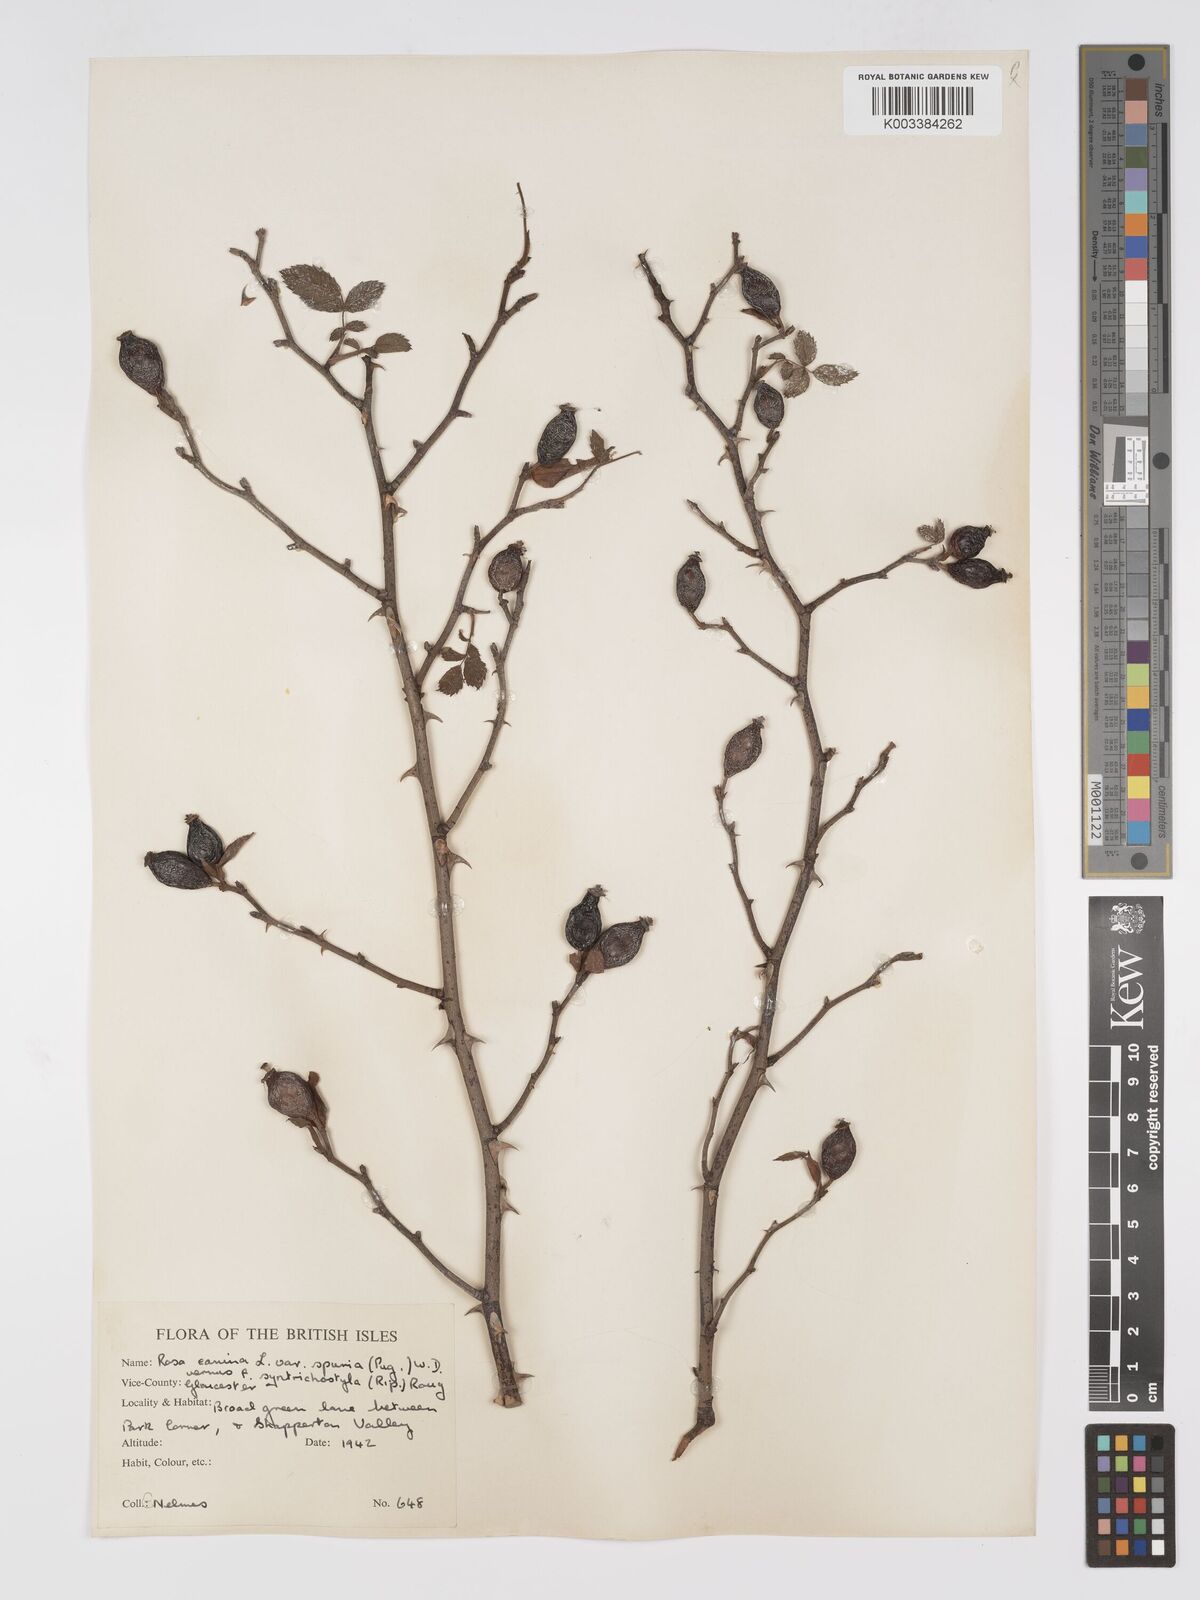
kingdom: Plantae
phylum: Tracheophyta
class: Magnoliopsida
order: Rosales
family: Rosaceae
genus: Rosa
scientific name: Rosa canina
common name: Dog rose
